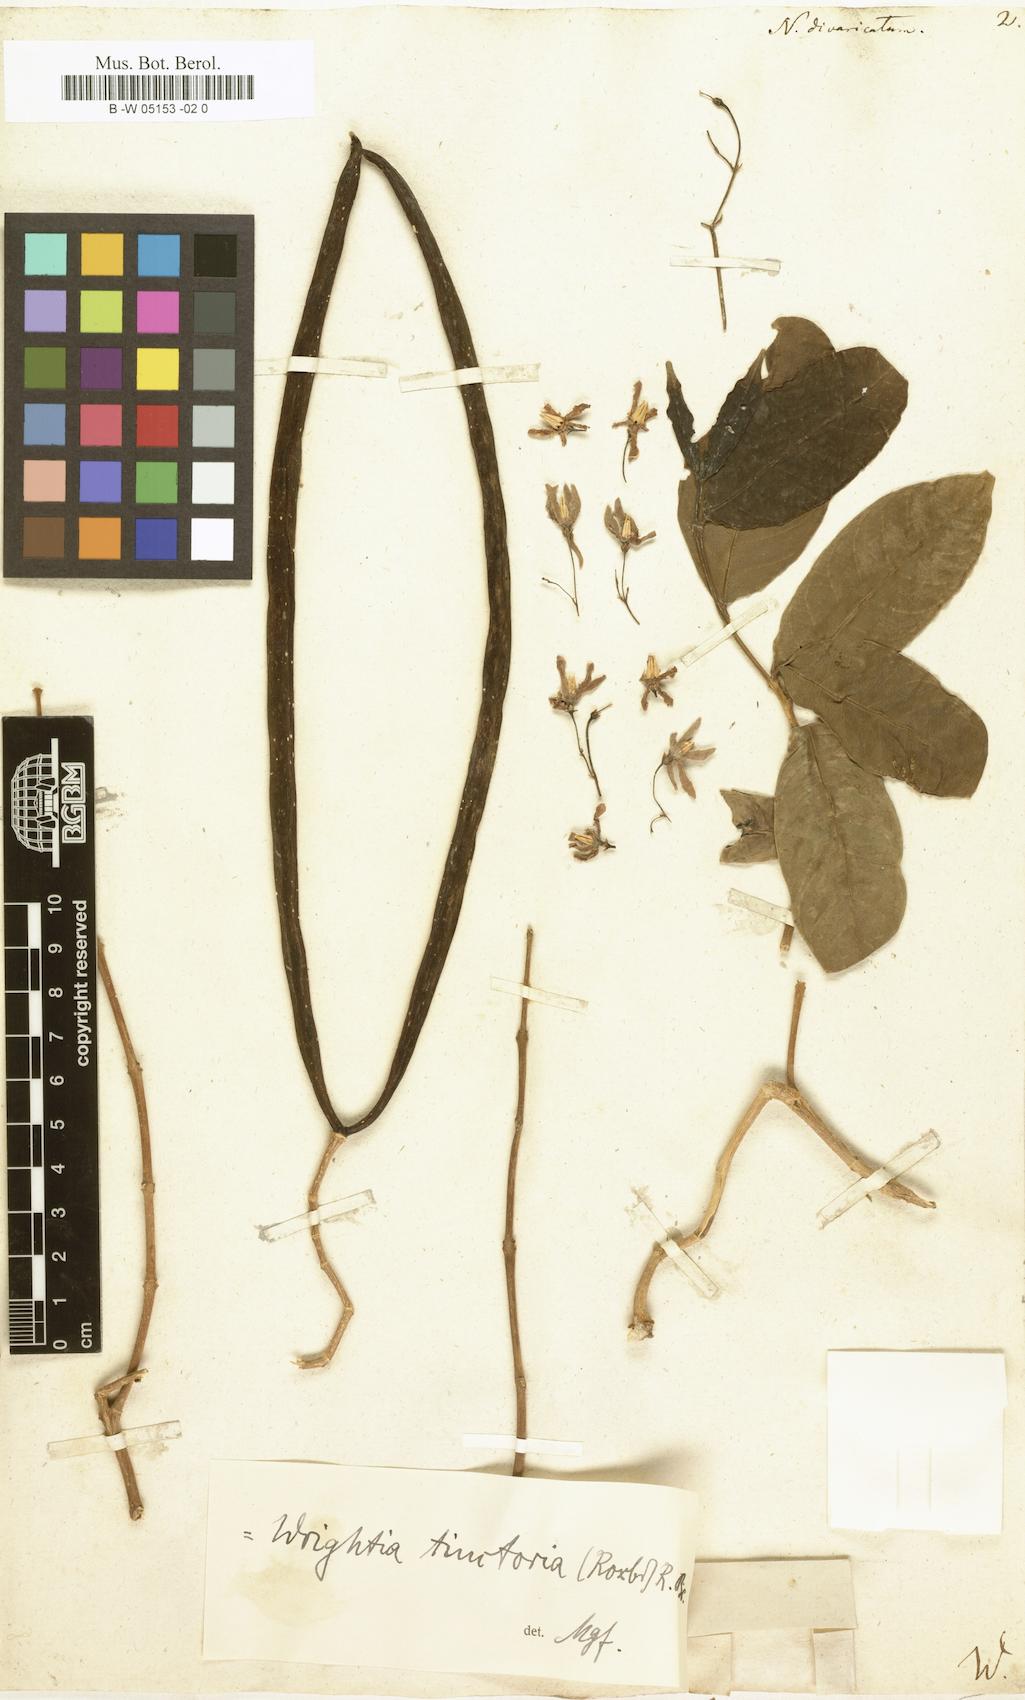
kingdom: Plantae
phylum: Tracheophyta
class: Magnoliopsida
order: Gentianales
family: Apocynaceae
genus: Nerium
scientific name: Nerium divaricatum
